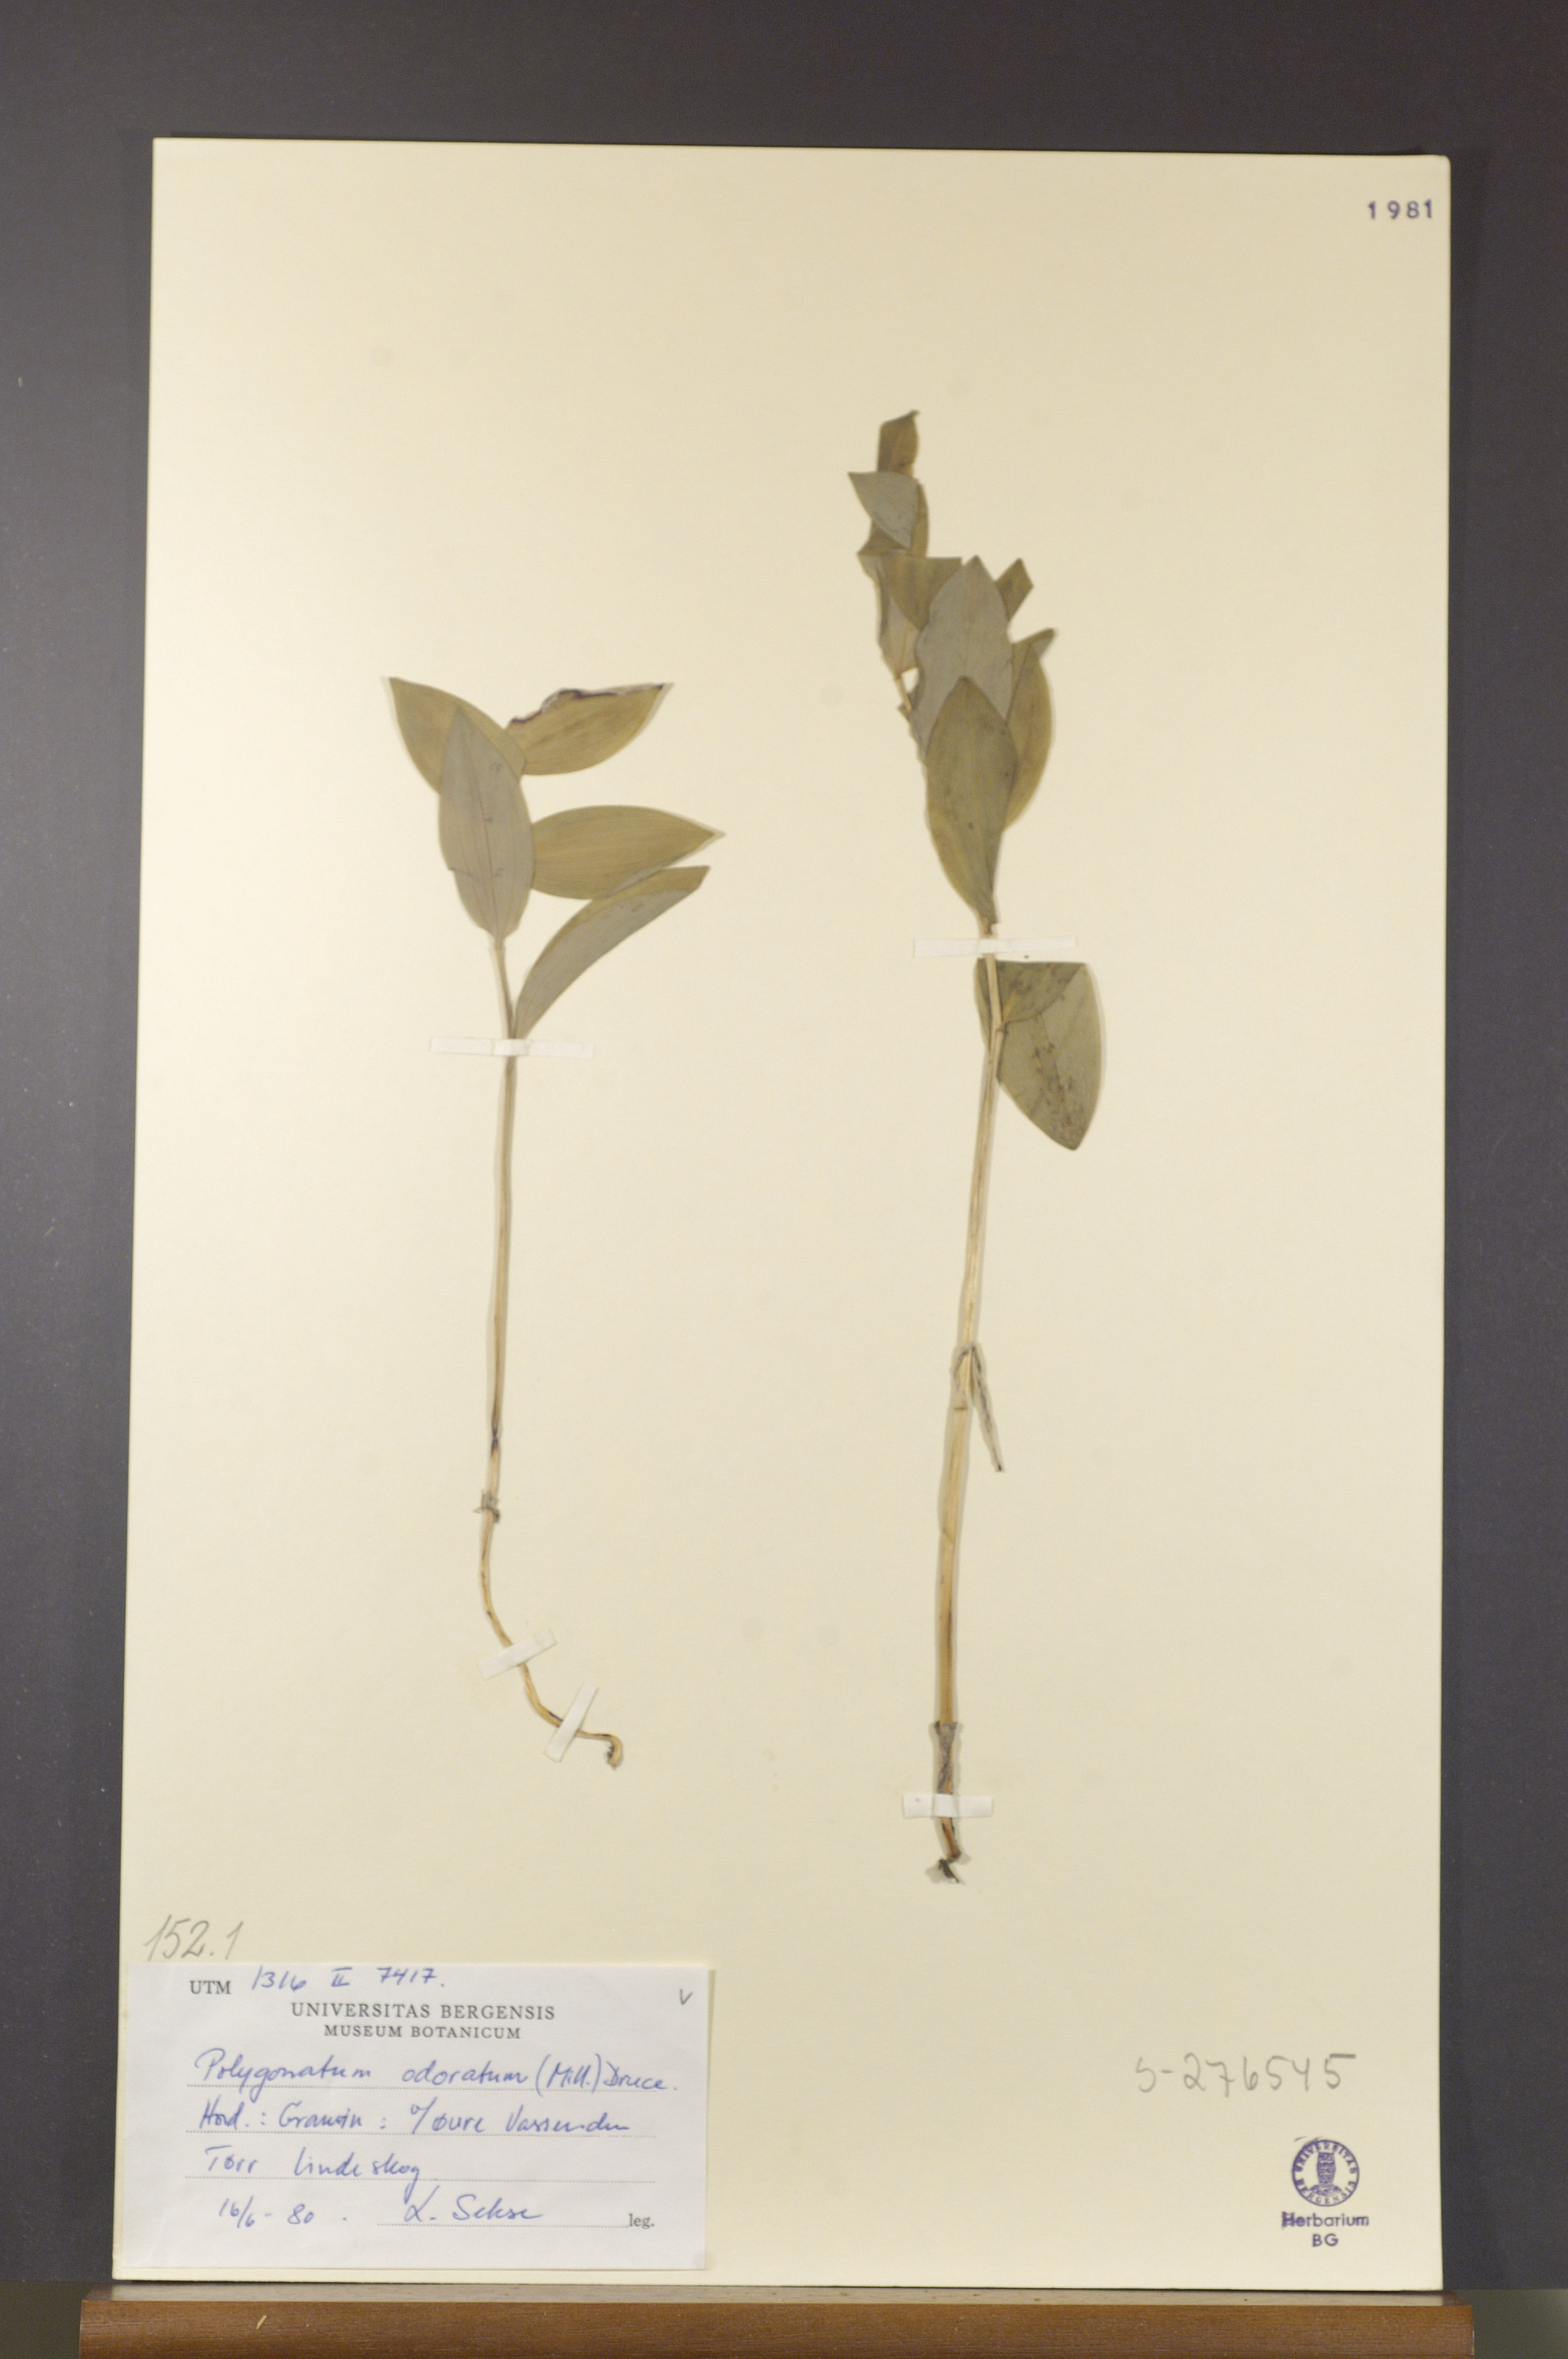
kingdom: Plantae
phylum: Tracheophyta
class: Liliopsida
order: Asparagales
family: Asparagaceae
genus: Polygonatum
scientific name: Polygonatum odoratum
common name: Angular solomon's-seal
